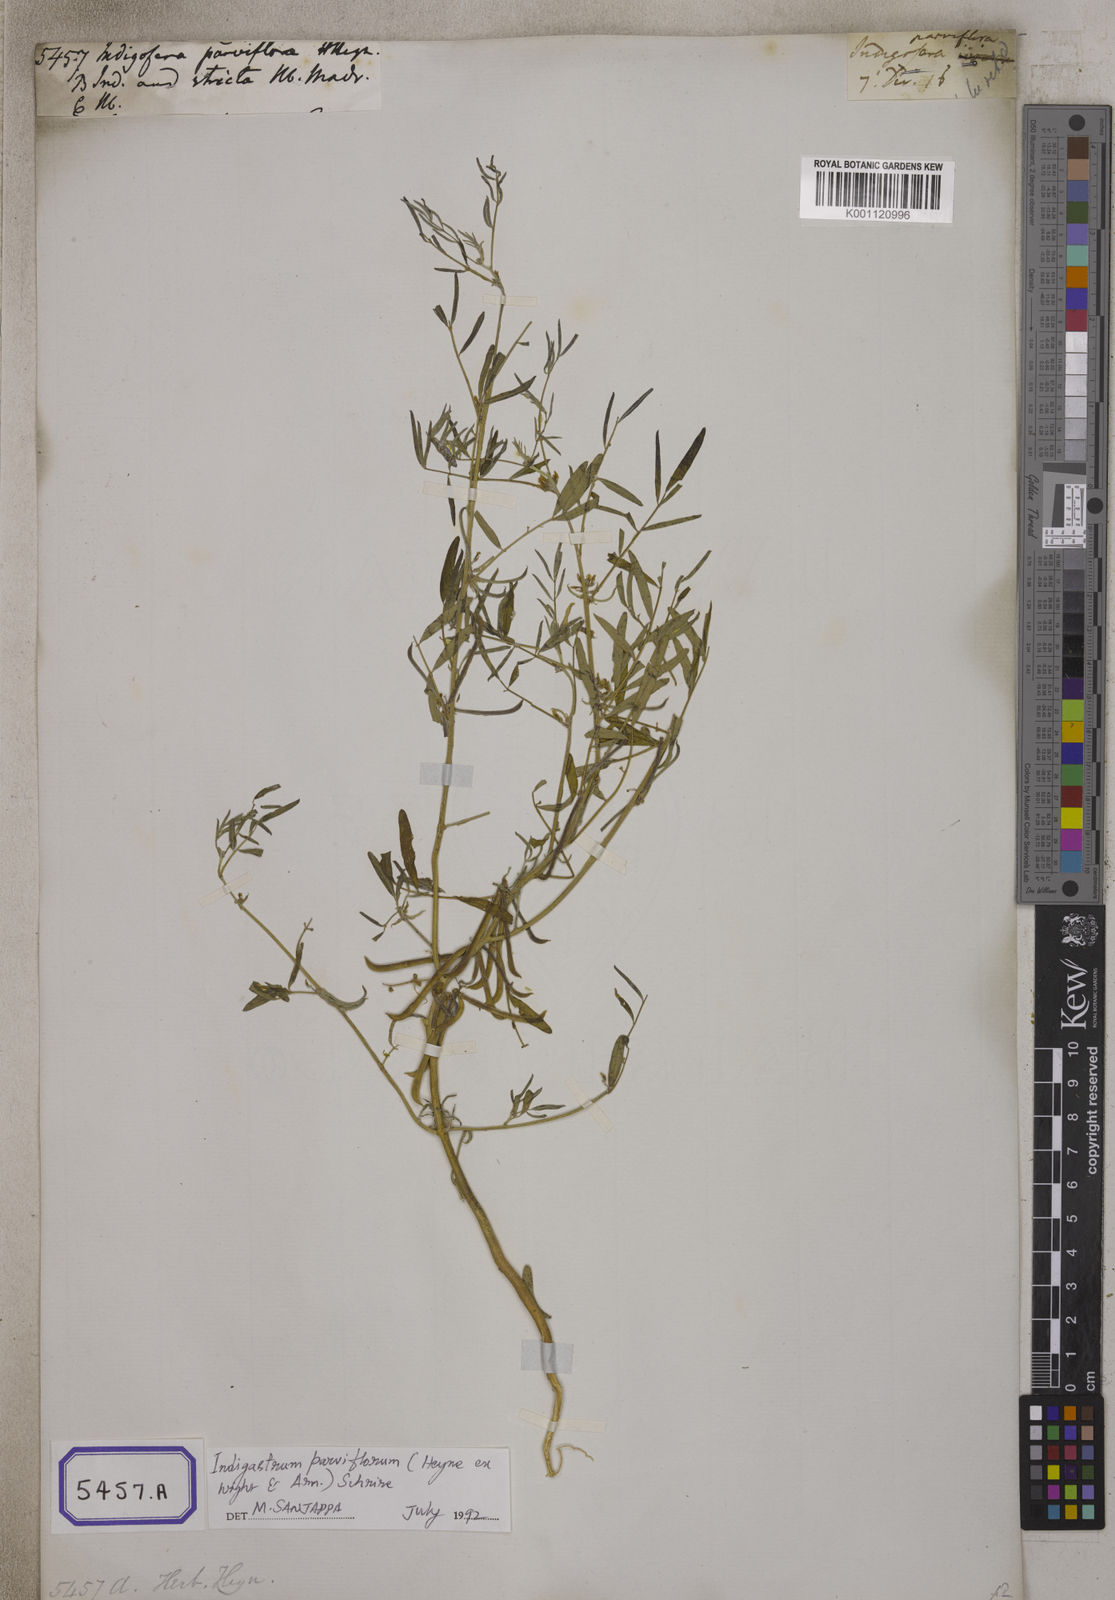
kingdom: Plantae
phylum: Tracheophyta
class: Magnoliopsida
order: Fabales
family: Fabaceae
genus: Indigastrum
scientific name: Indigastrum parviflorum
